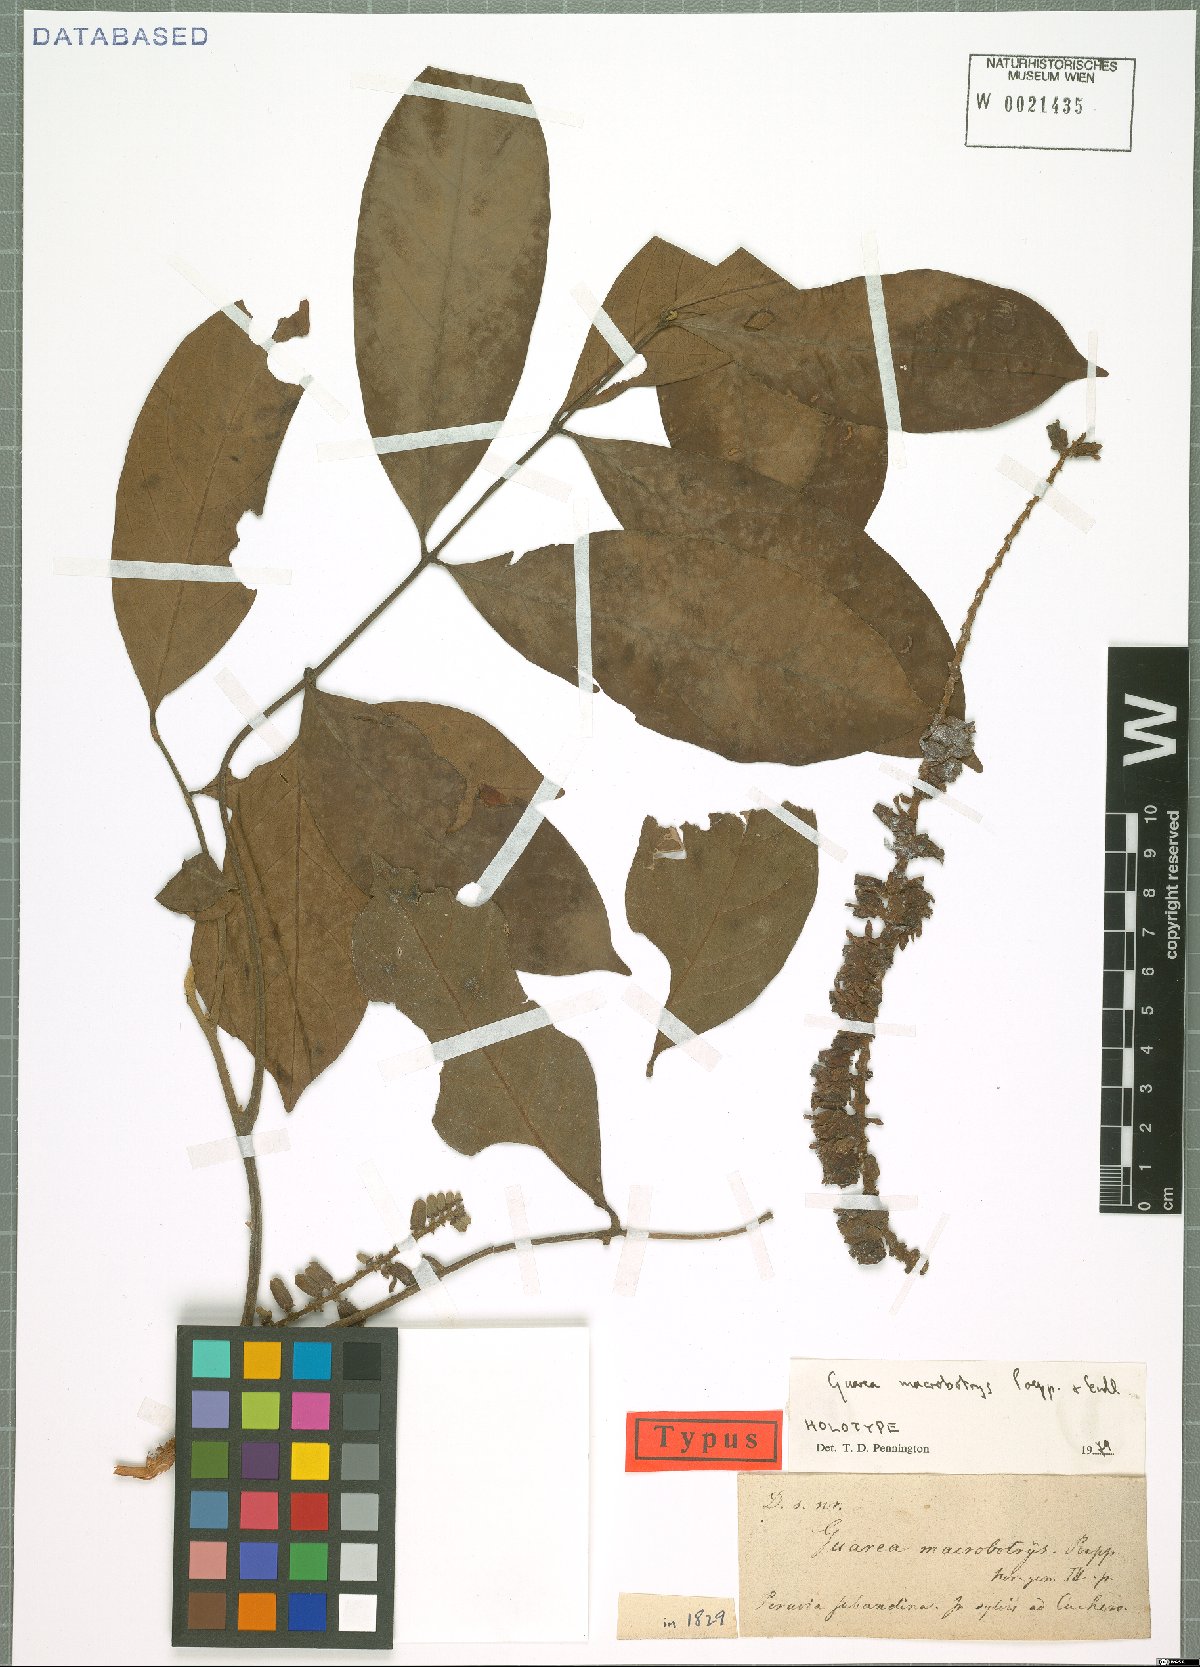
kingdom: Plantae
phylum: Tracheophyta
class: Magnoliopsida
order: Sapindales
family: Meliaceae
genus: Guarea
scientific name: Guarea macrophylla
